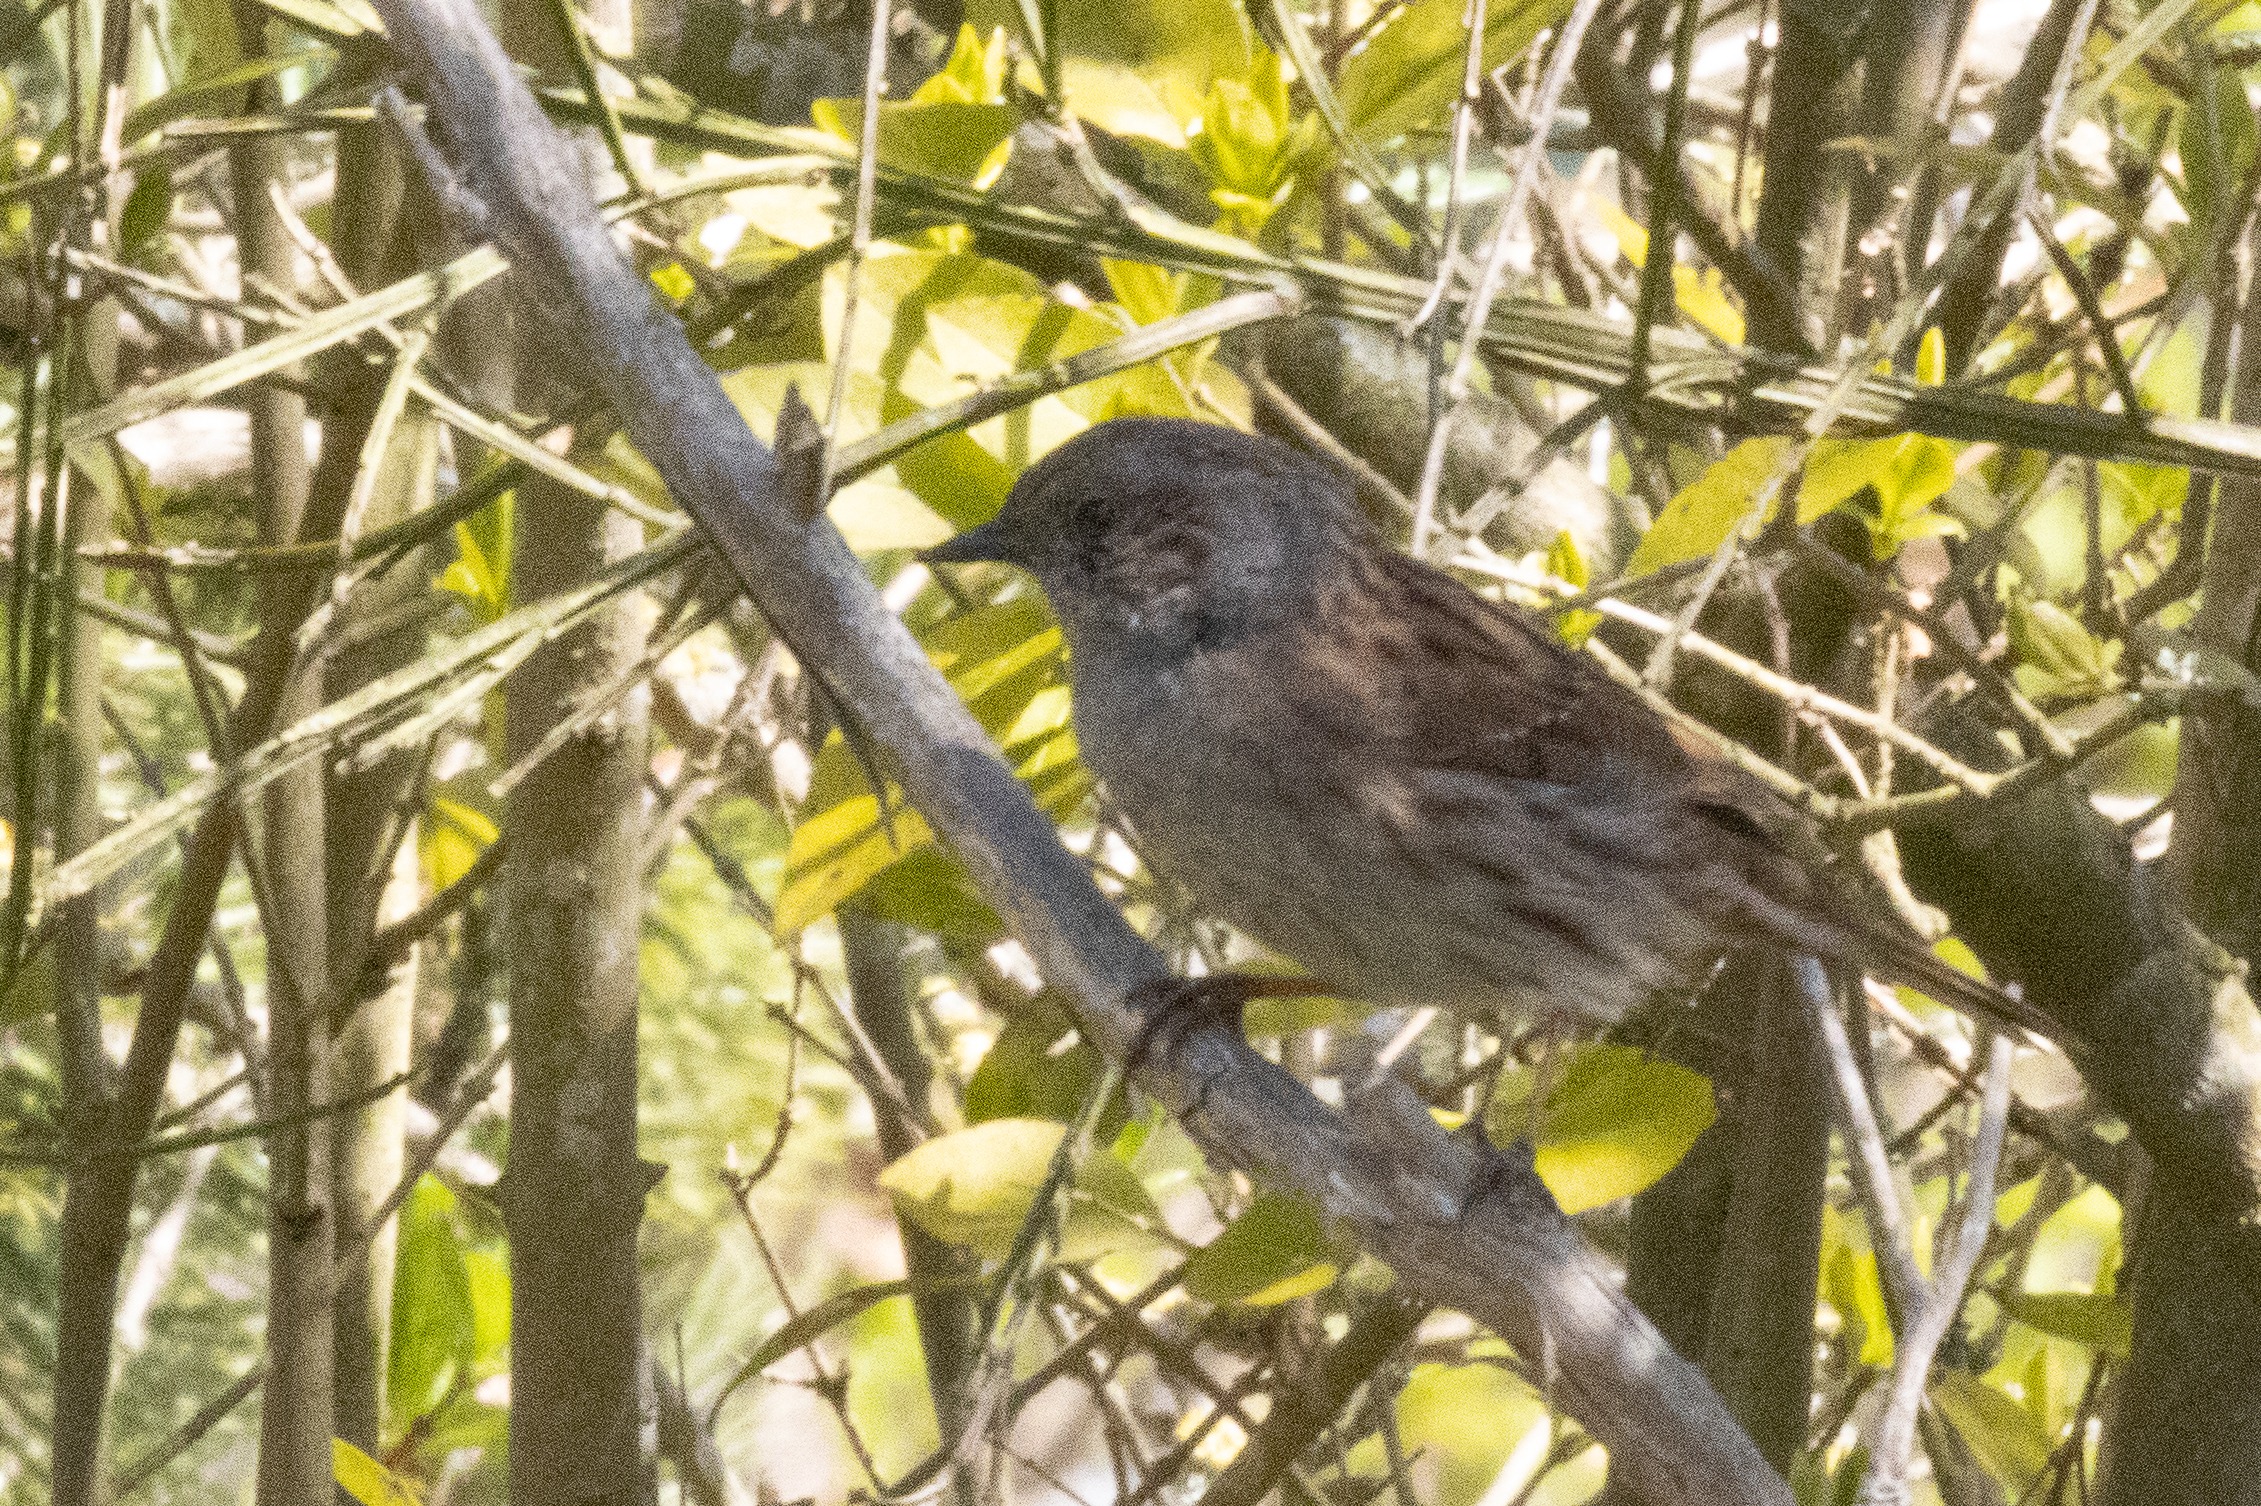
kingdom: Animalia
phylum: Chordata
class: Aves
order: Passeriformes
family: Prunellidae
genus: Prunella
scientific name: Prunella modularis
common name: Jernspurv
